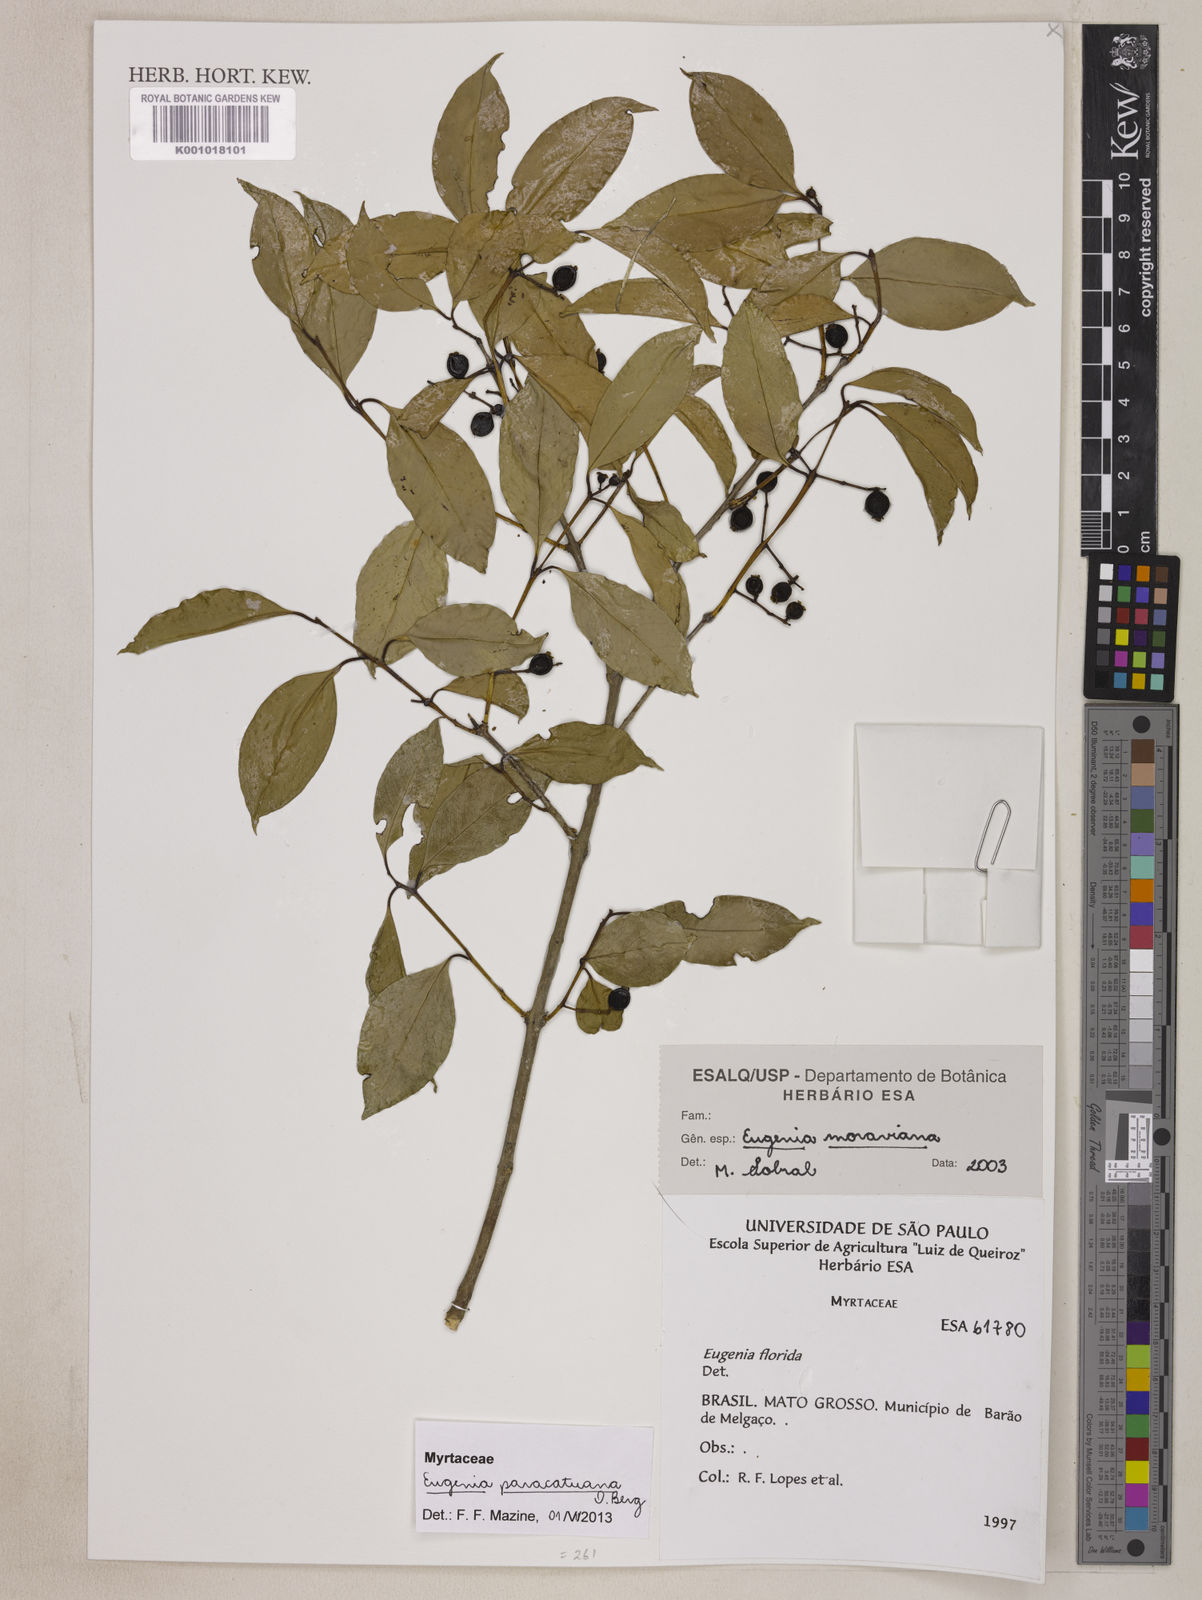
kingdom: Plantae
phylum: Tracheophyta
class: Magnoliopsida
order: Myrtales
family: Myrtaceae
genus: Eugenia
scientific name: Eugenia moraviana
